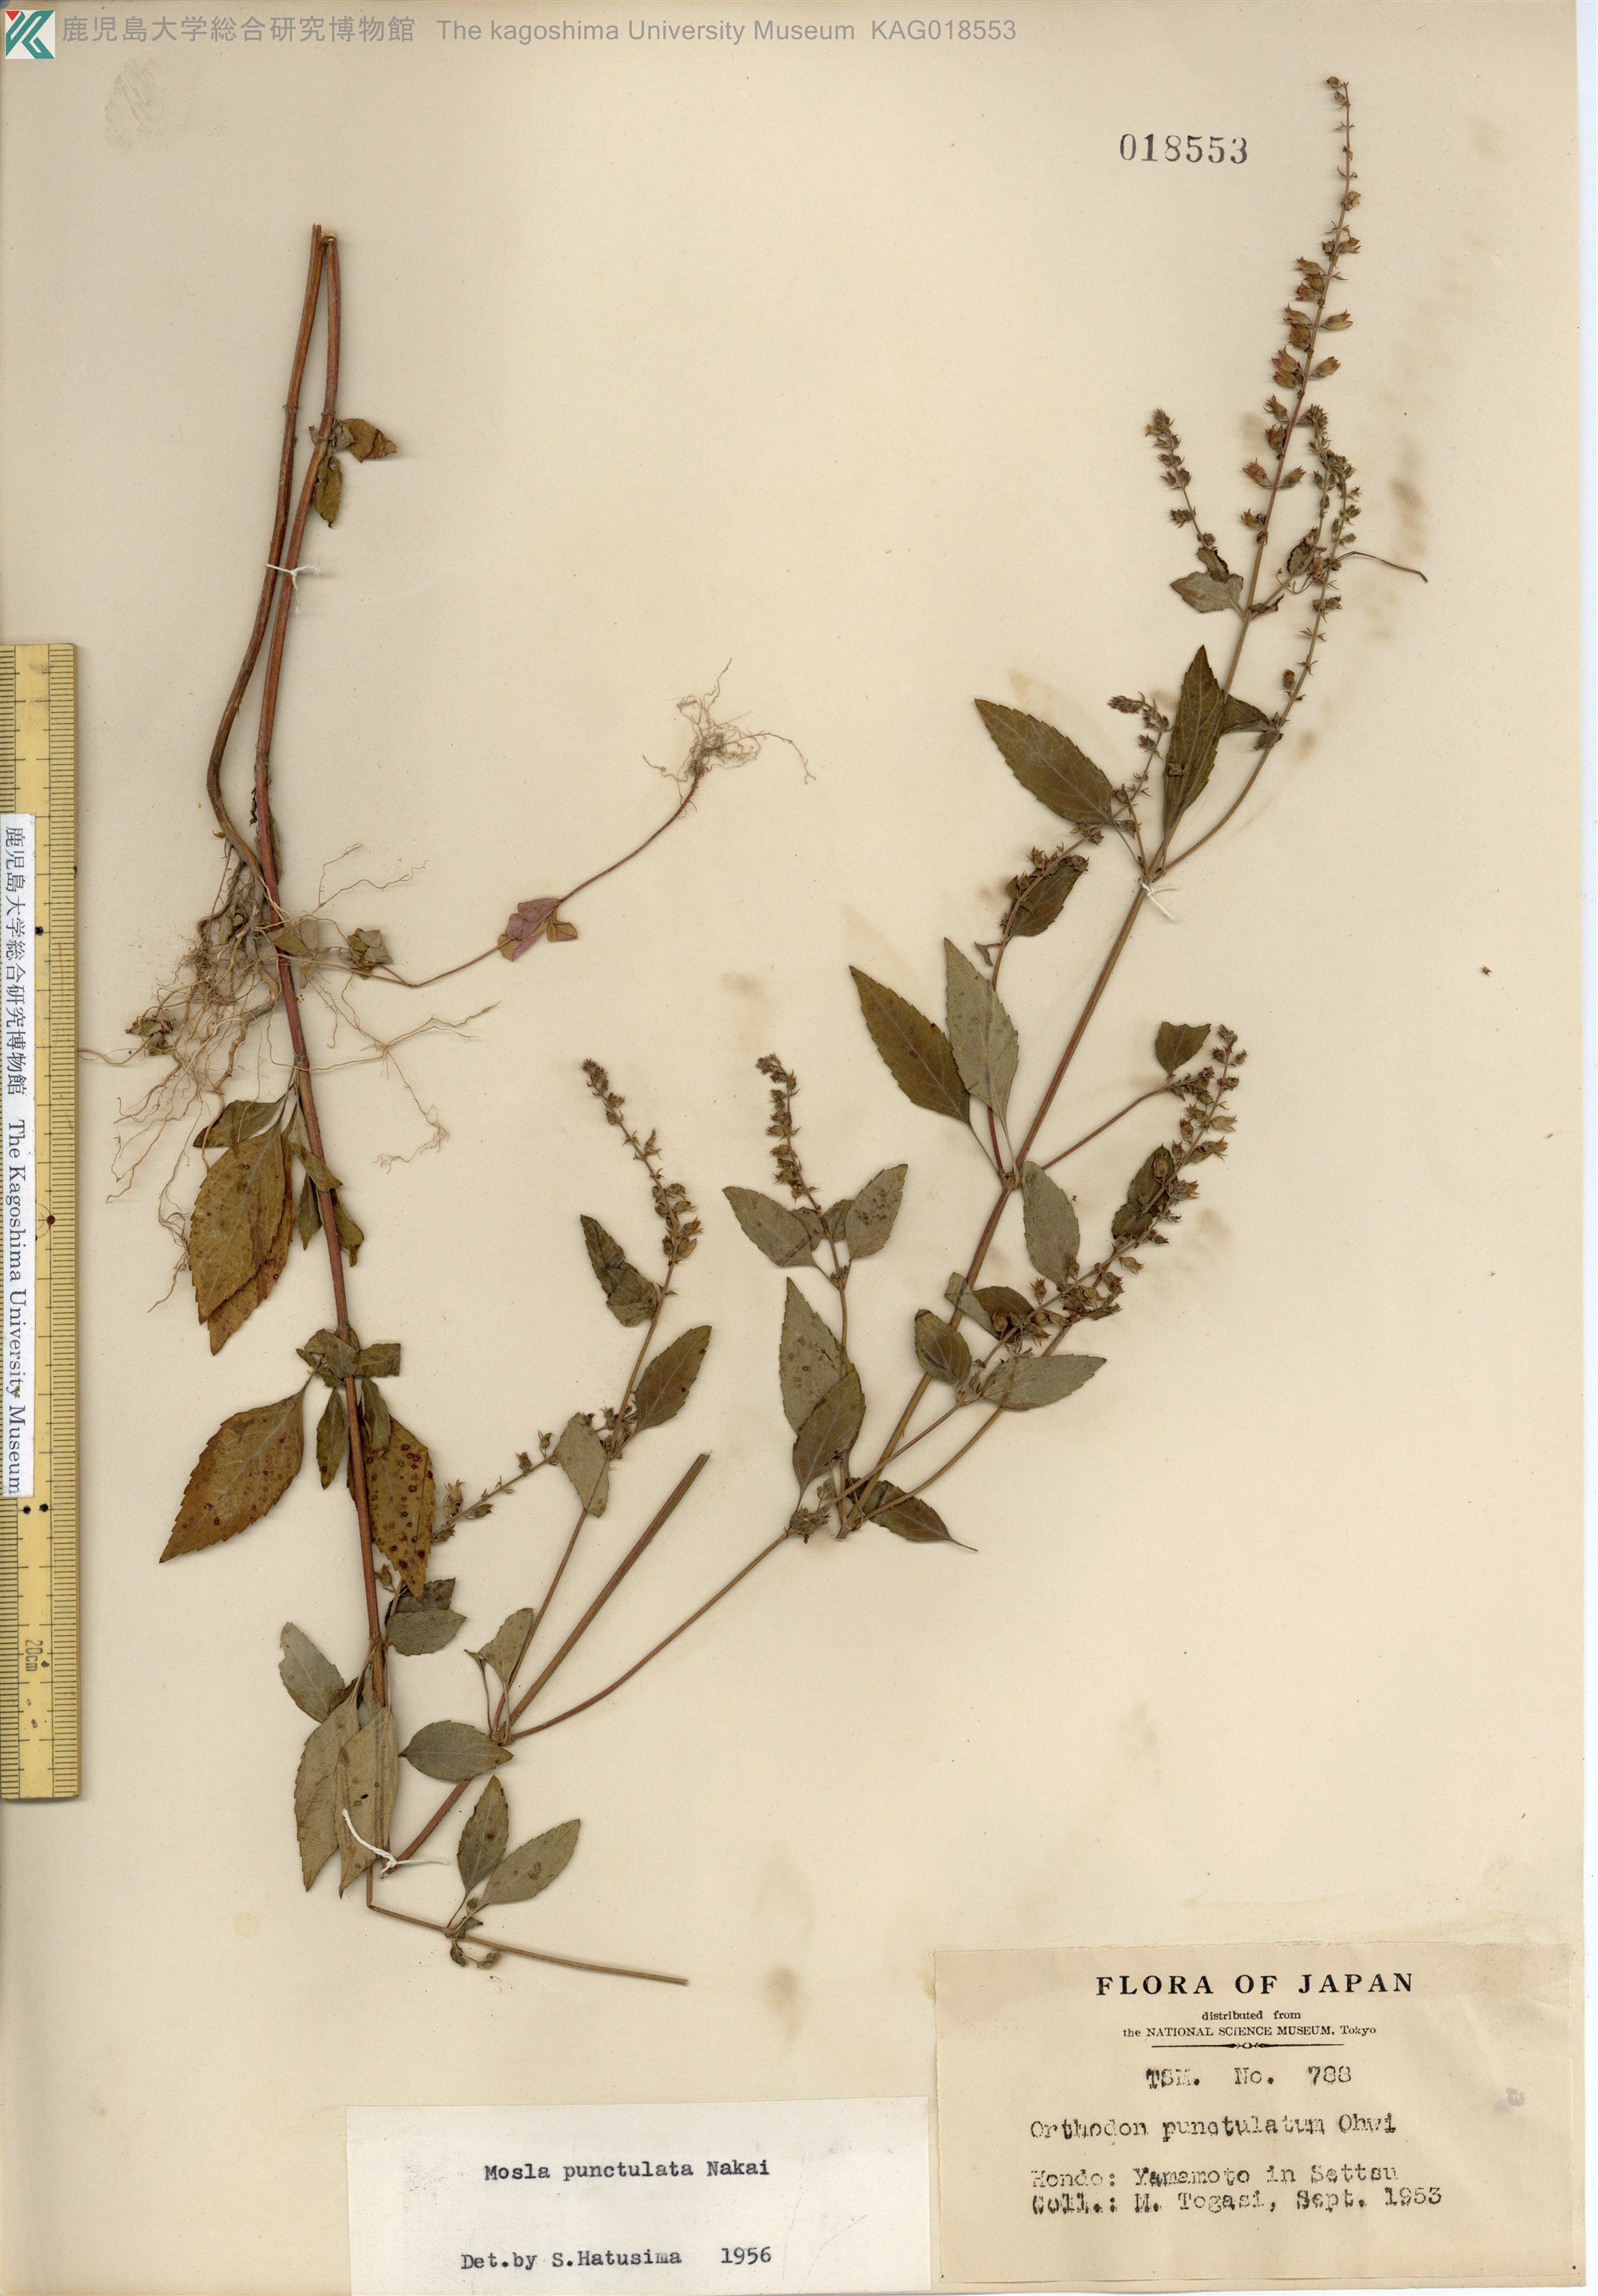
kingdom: Plantae
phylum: Tracheophyta
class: Magnoliopsida
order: Lamiales
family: Lamiaceae
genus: Mosla
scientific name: Mosla scabra
